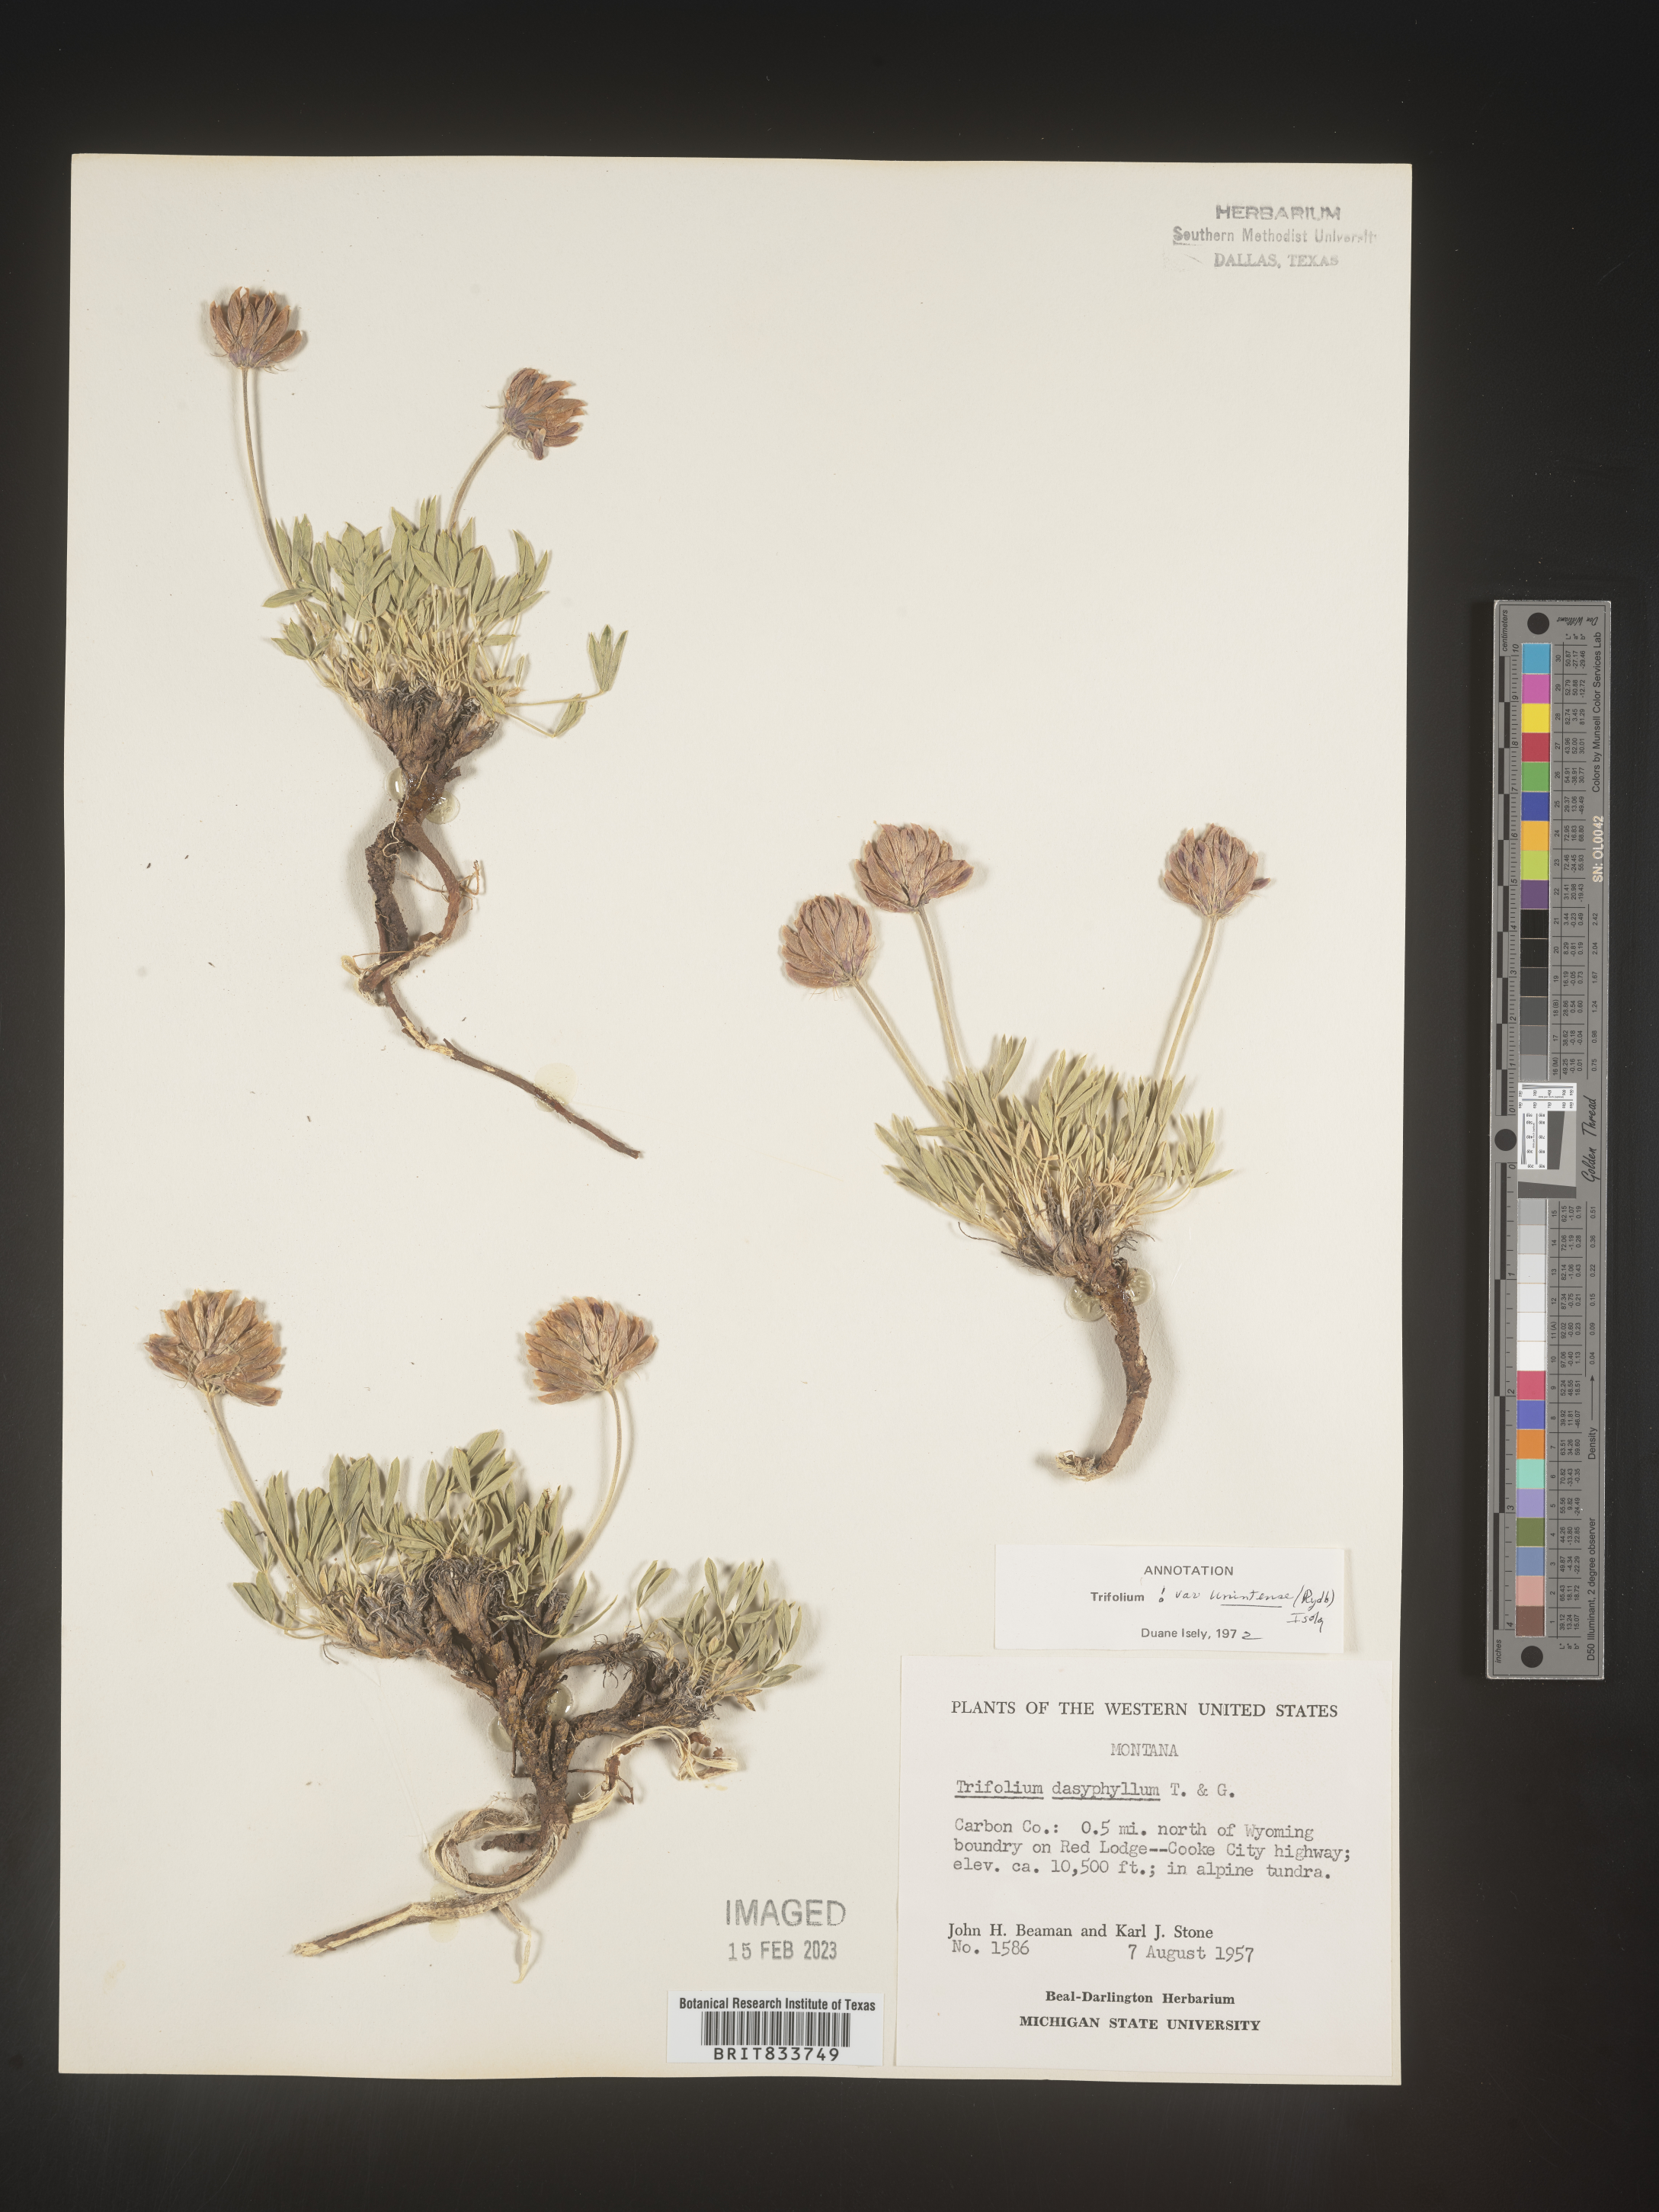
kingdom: Plantae
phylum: Tracheophyta
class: Magnoliopsida
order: Fabales
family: Fabaceae
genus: Trifolium
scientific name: Trifolium
